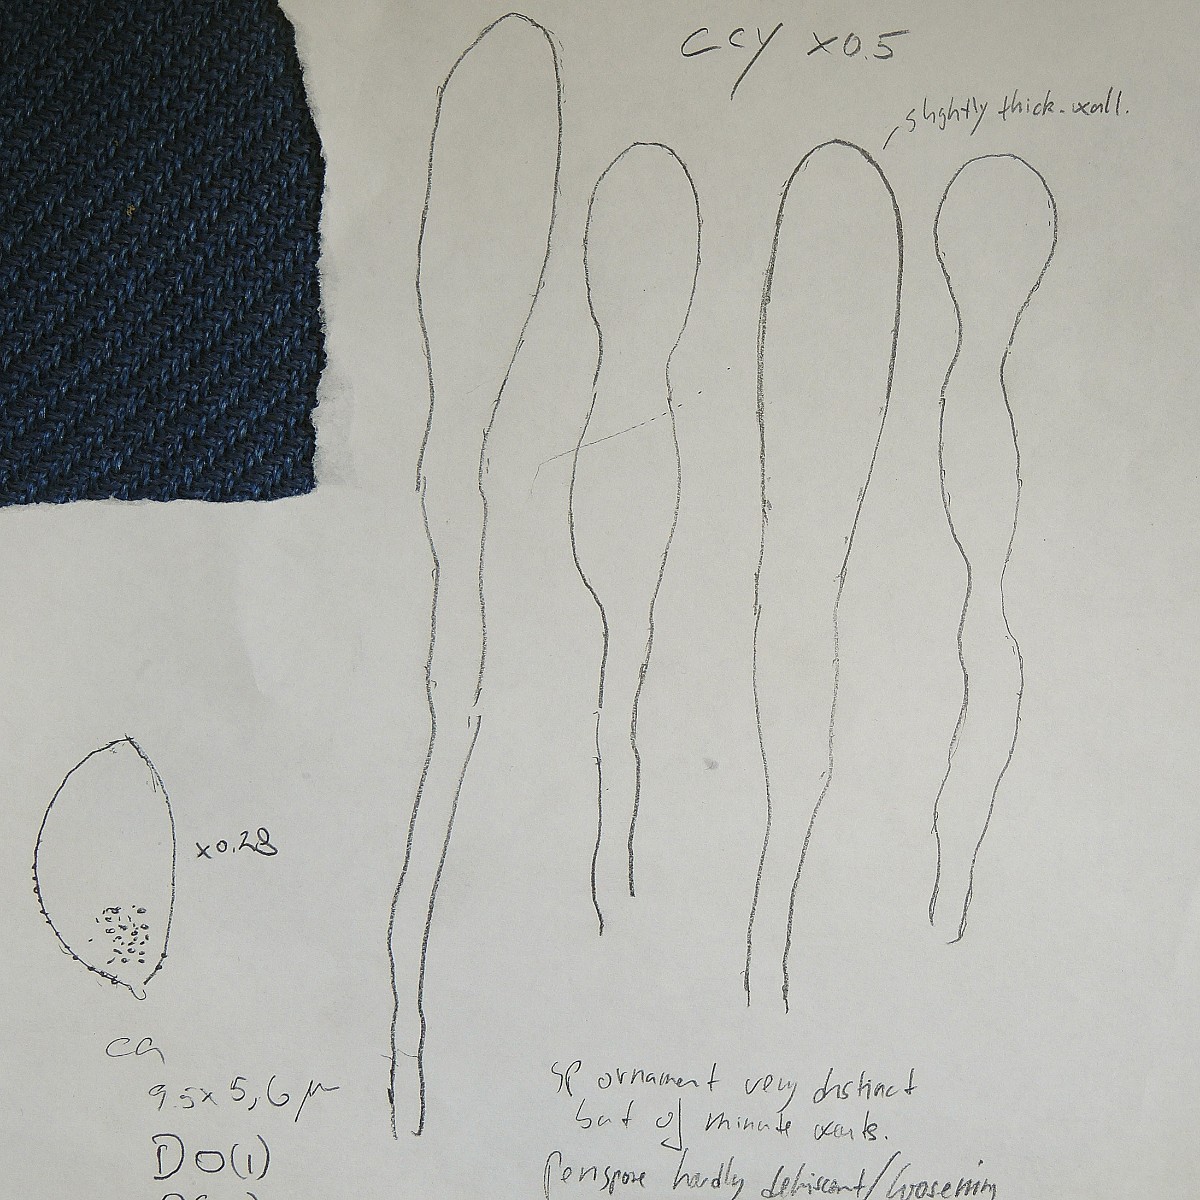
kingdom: Fungi
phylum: Basidiomycota
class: Agaricomycetes
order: Agaricales
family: Hymenogastraceae
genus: Hebeloma
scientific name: Hebeloma geminatum
